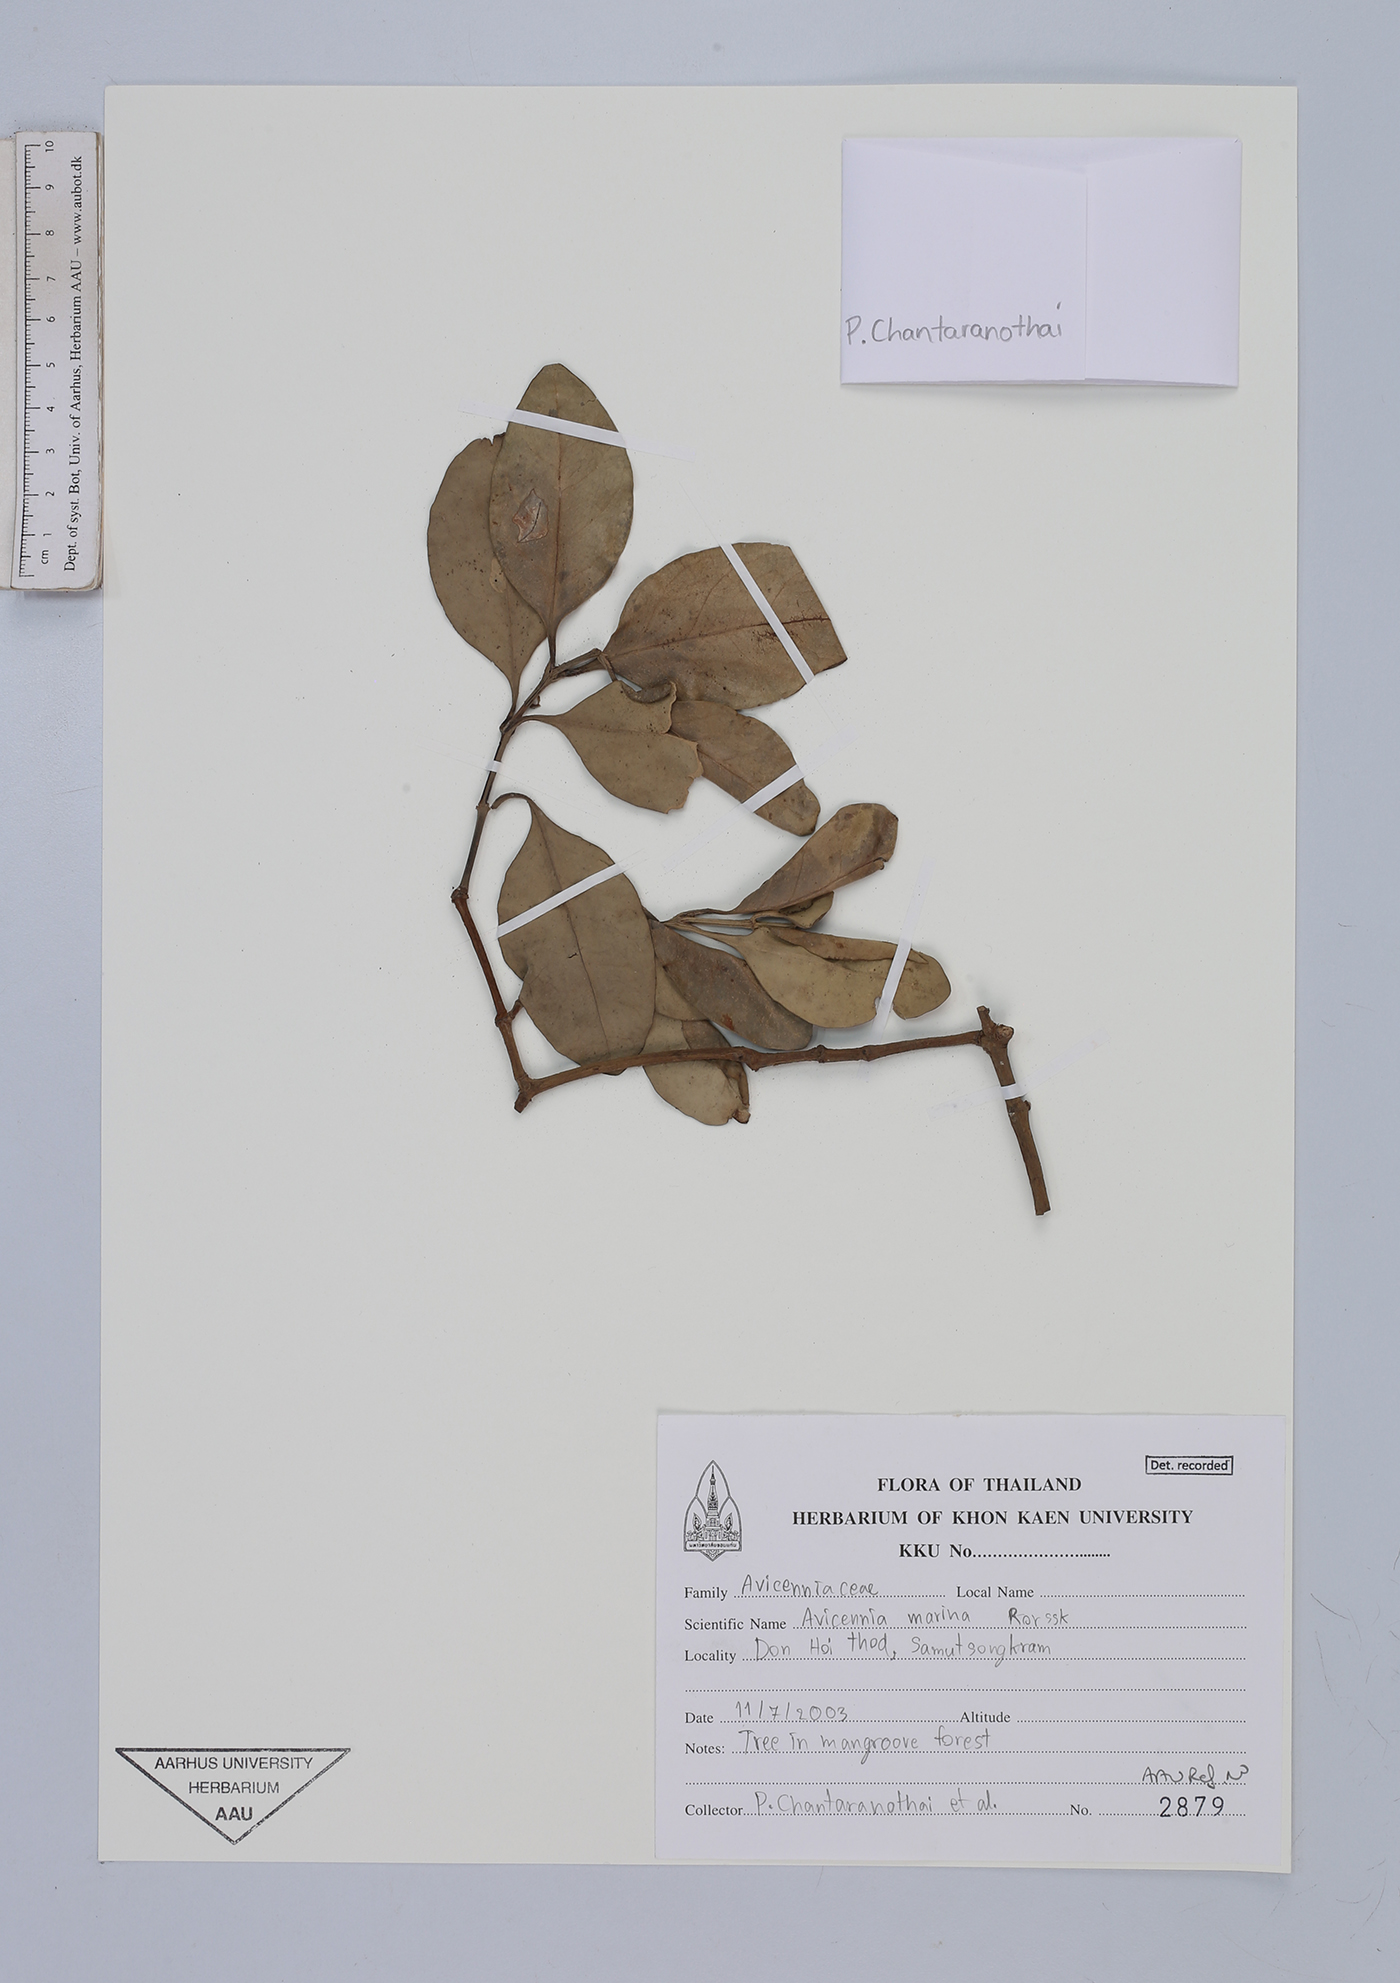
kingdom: Plantae
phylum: Tracheophyta
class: Magnoliopsida
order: Lamiales
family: Acanthaceae
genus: Avicennia
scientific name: Avicennia marina
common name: Gray mangrove
